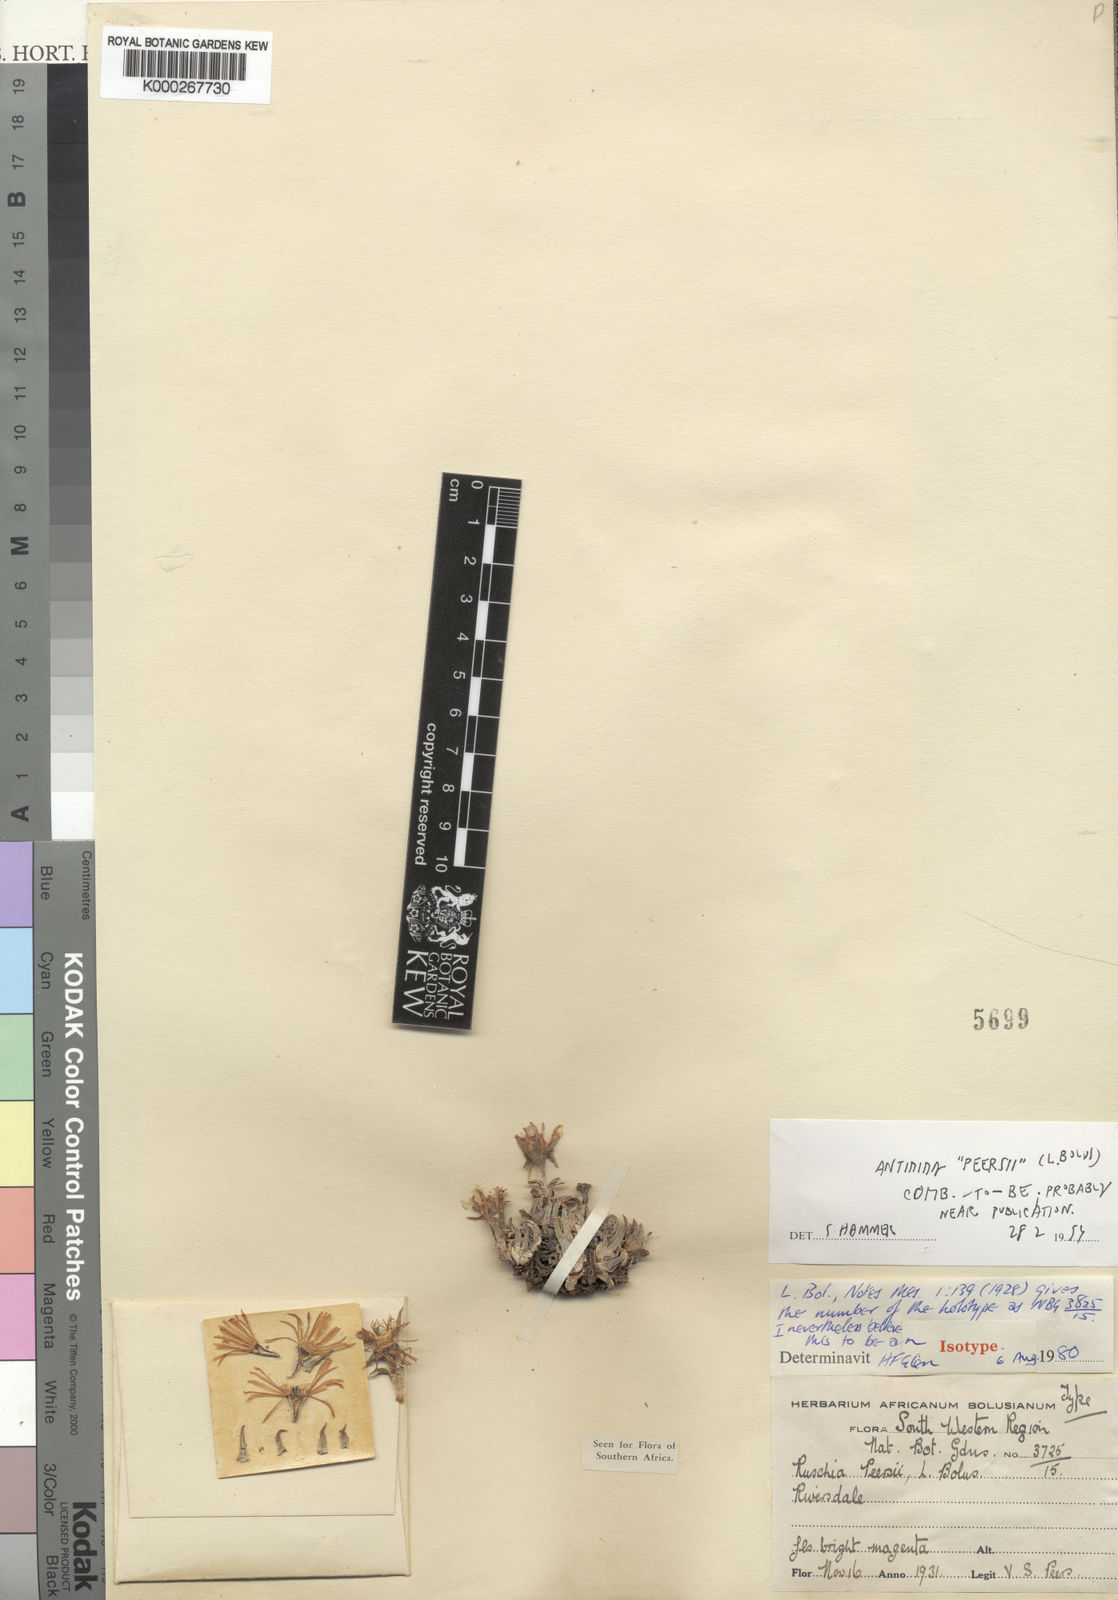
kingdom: Plantae
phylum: Tracheophyta
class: Magnoliopsida
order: Caryophyllales
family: Aizoaceae
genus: Antimima
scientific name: Antimima peersii
